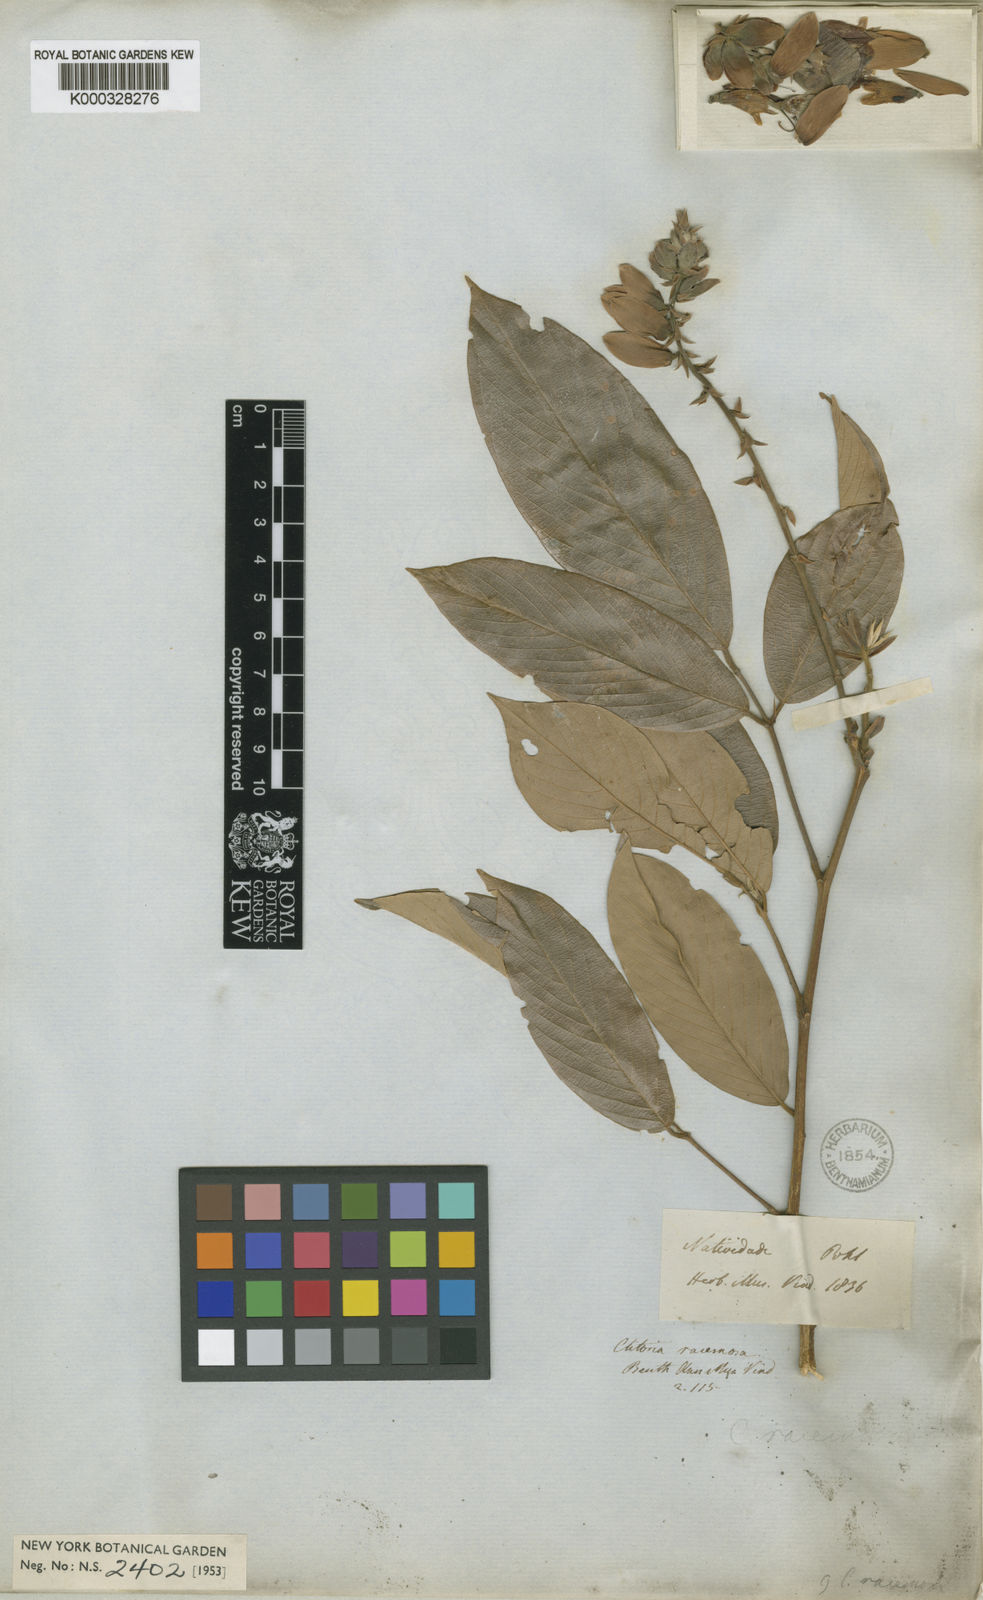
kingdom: Plantae
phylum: Tracheophyta
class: Magnoliopsida
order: Fabales
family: Fabaceae
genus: Clitoria
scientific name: Clitoria fairchildiana
